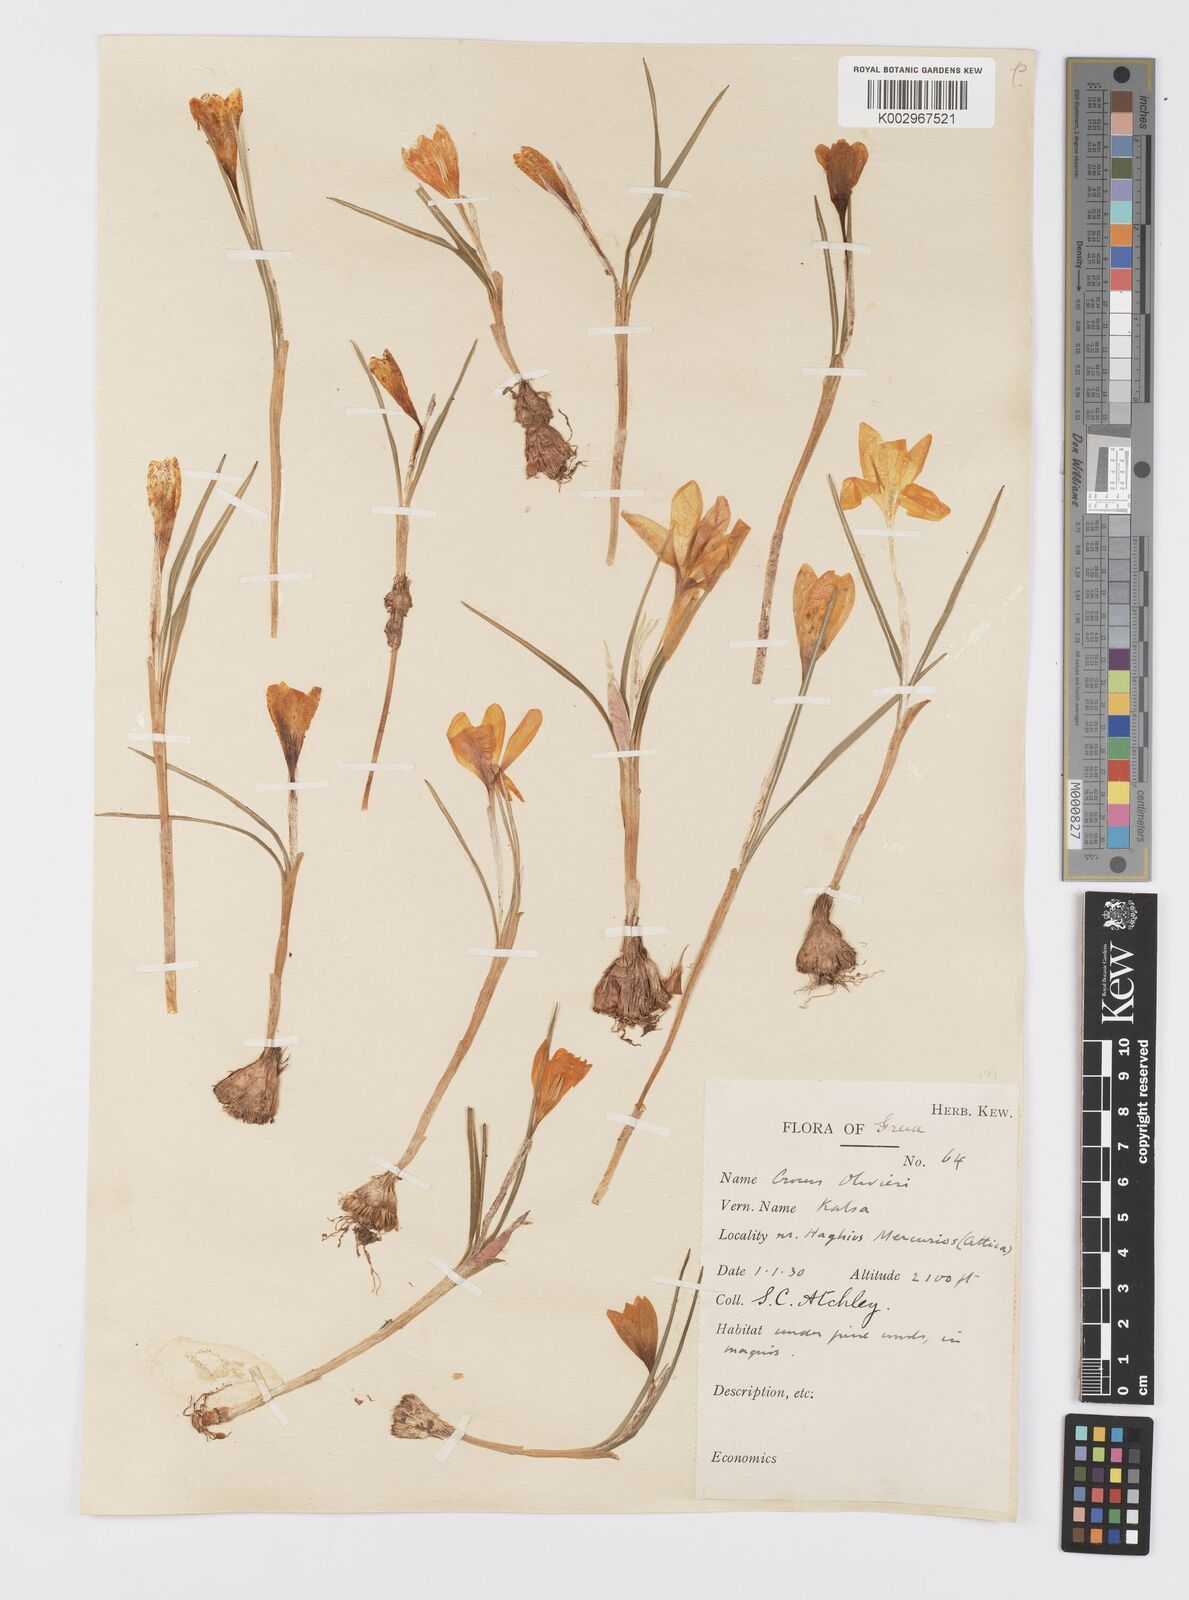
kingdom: Plantae
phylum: Tracheophyta
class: Liliopsida
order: Asparagales
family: Iridaceae
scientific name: Iridaceae
